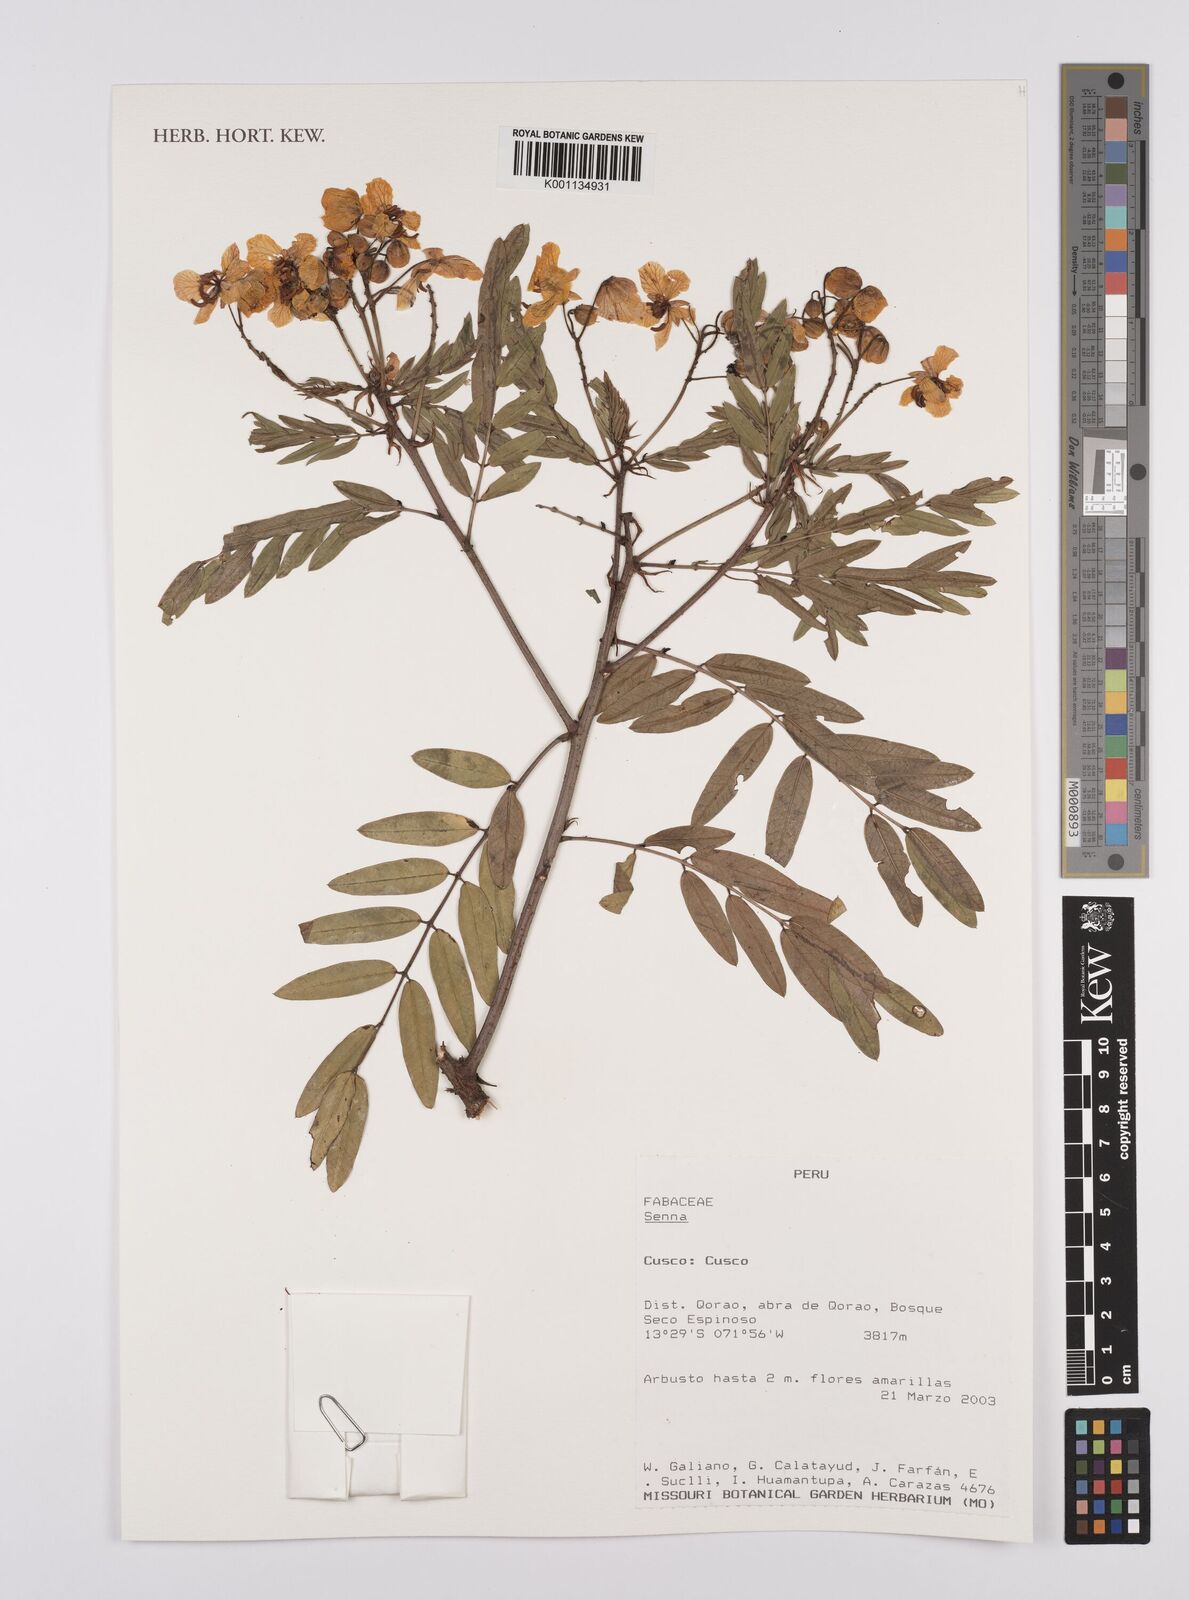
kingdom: Plantae
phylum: Tracheophyta
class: Magnoliopsida
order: Fabales
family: Fabaceae
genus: Senna
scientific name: Senna
